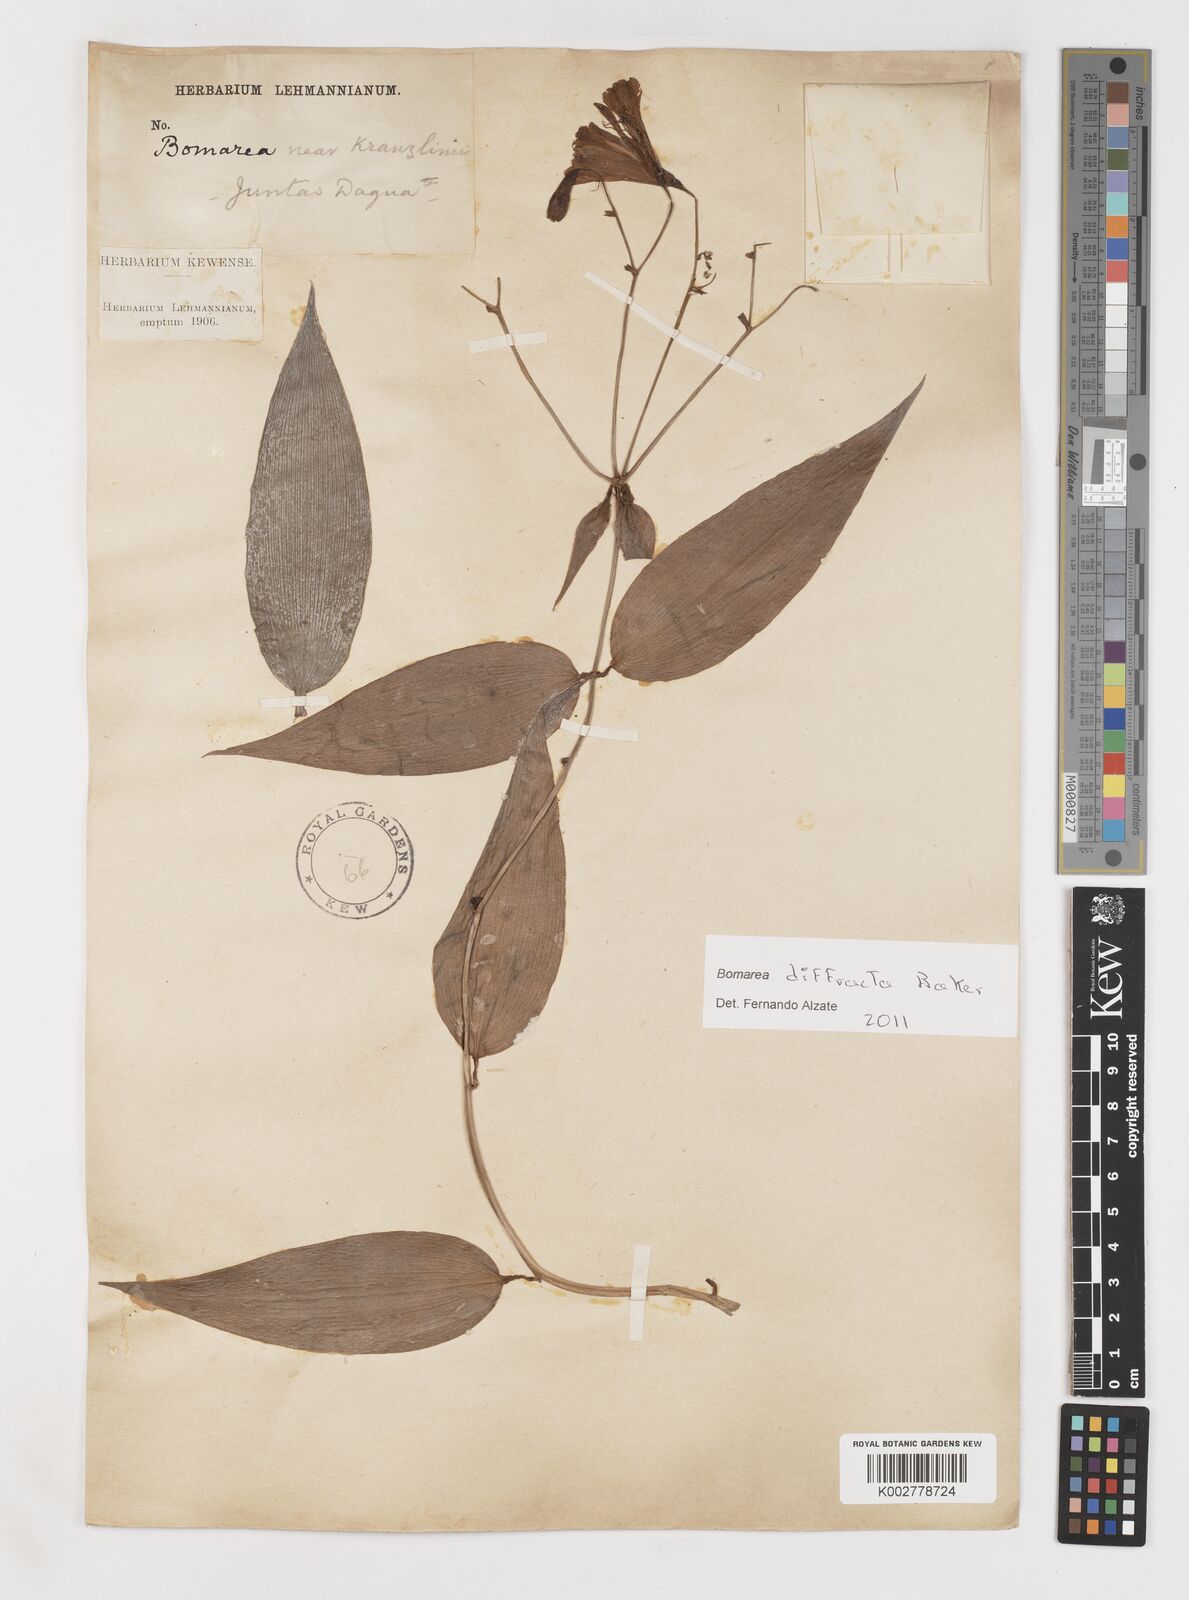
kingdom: Plantae
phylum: Tracheophyta
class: Liliopsida
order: Liliales
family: Alstroemeriaceae
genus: Bomarea
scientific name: Bomarea diffracta
